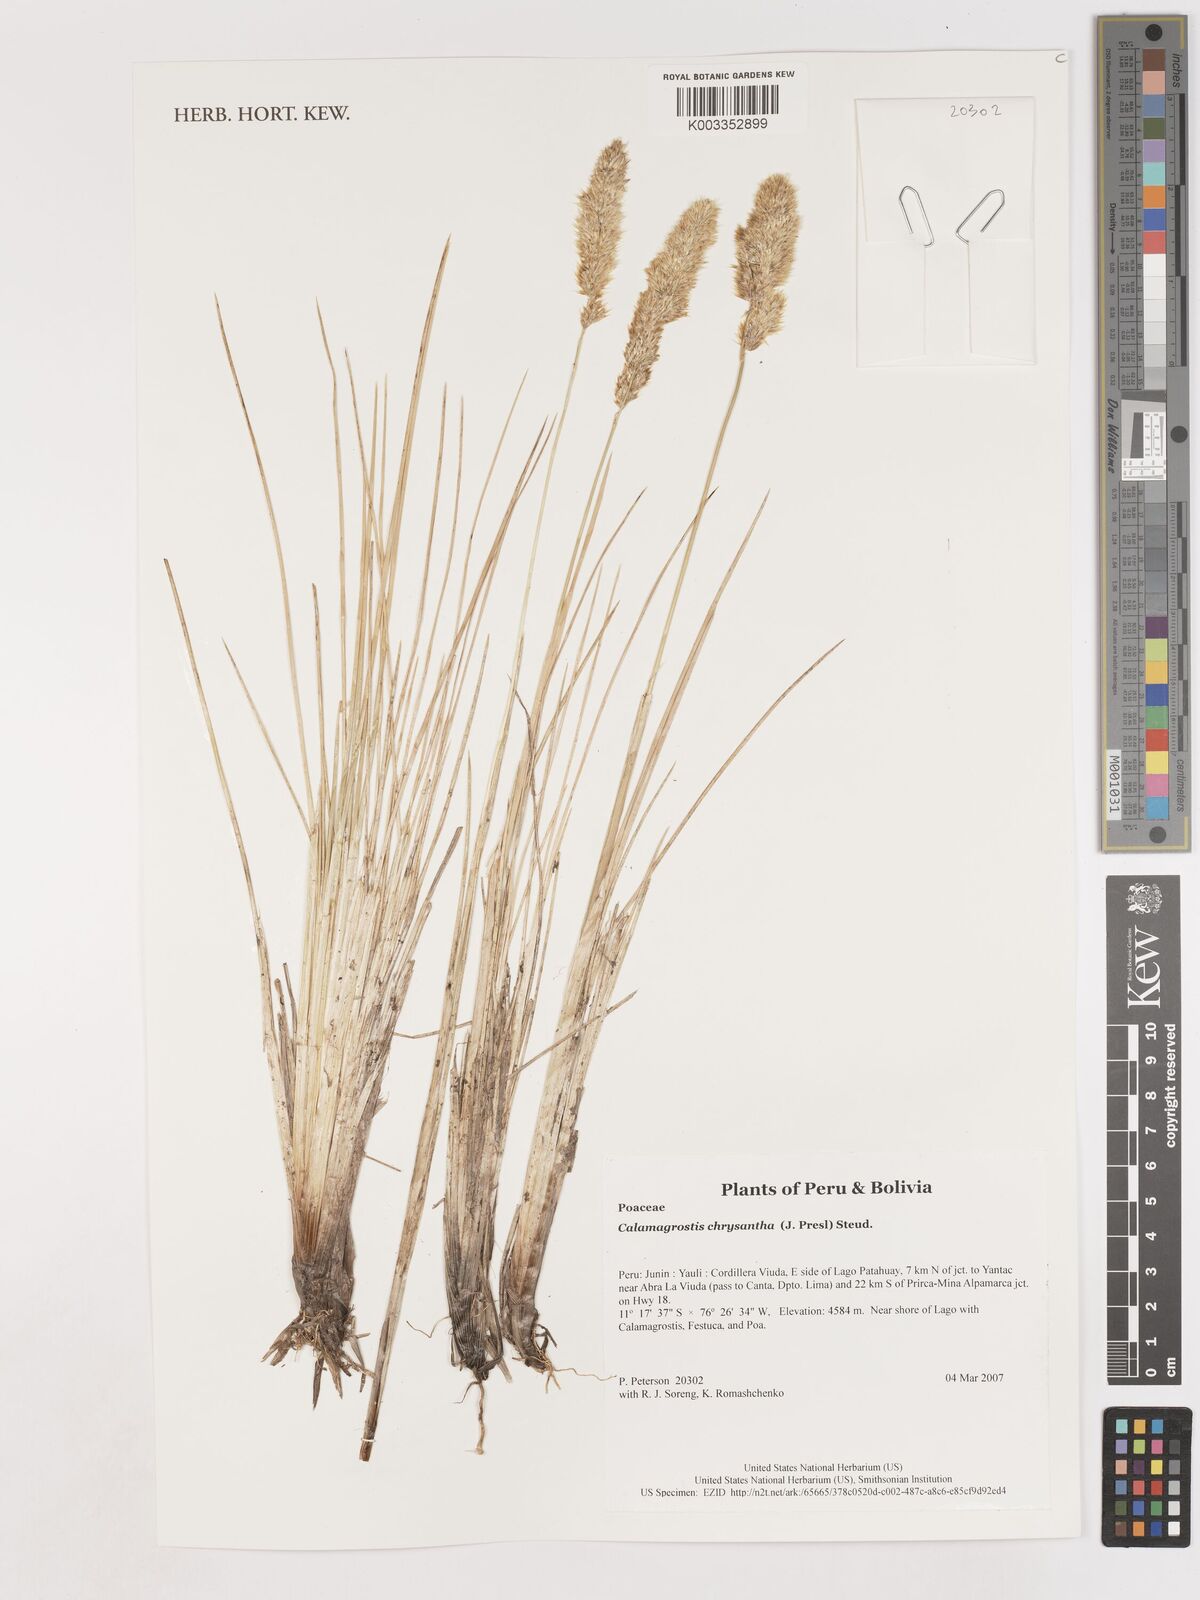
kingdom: Plantae
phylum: Tracheophyta
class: Liliopsida
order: Poales
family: Poaceae
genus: Deschampsia
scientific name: Deschampsia chrysantha
